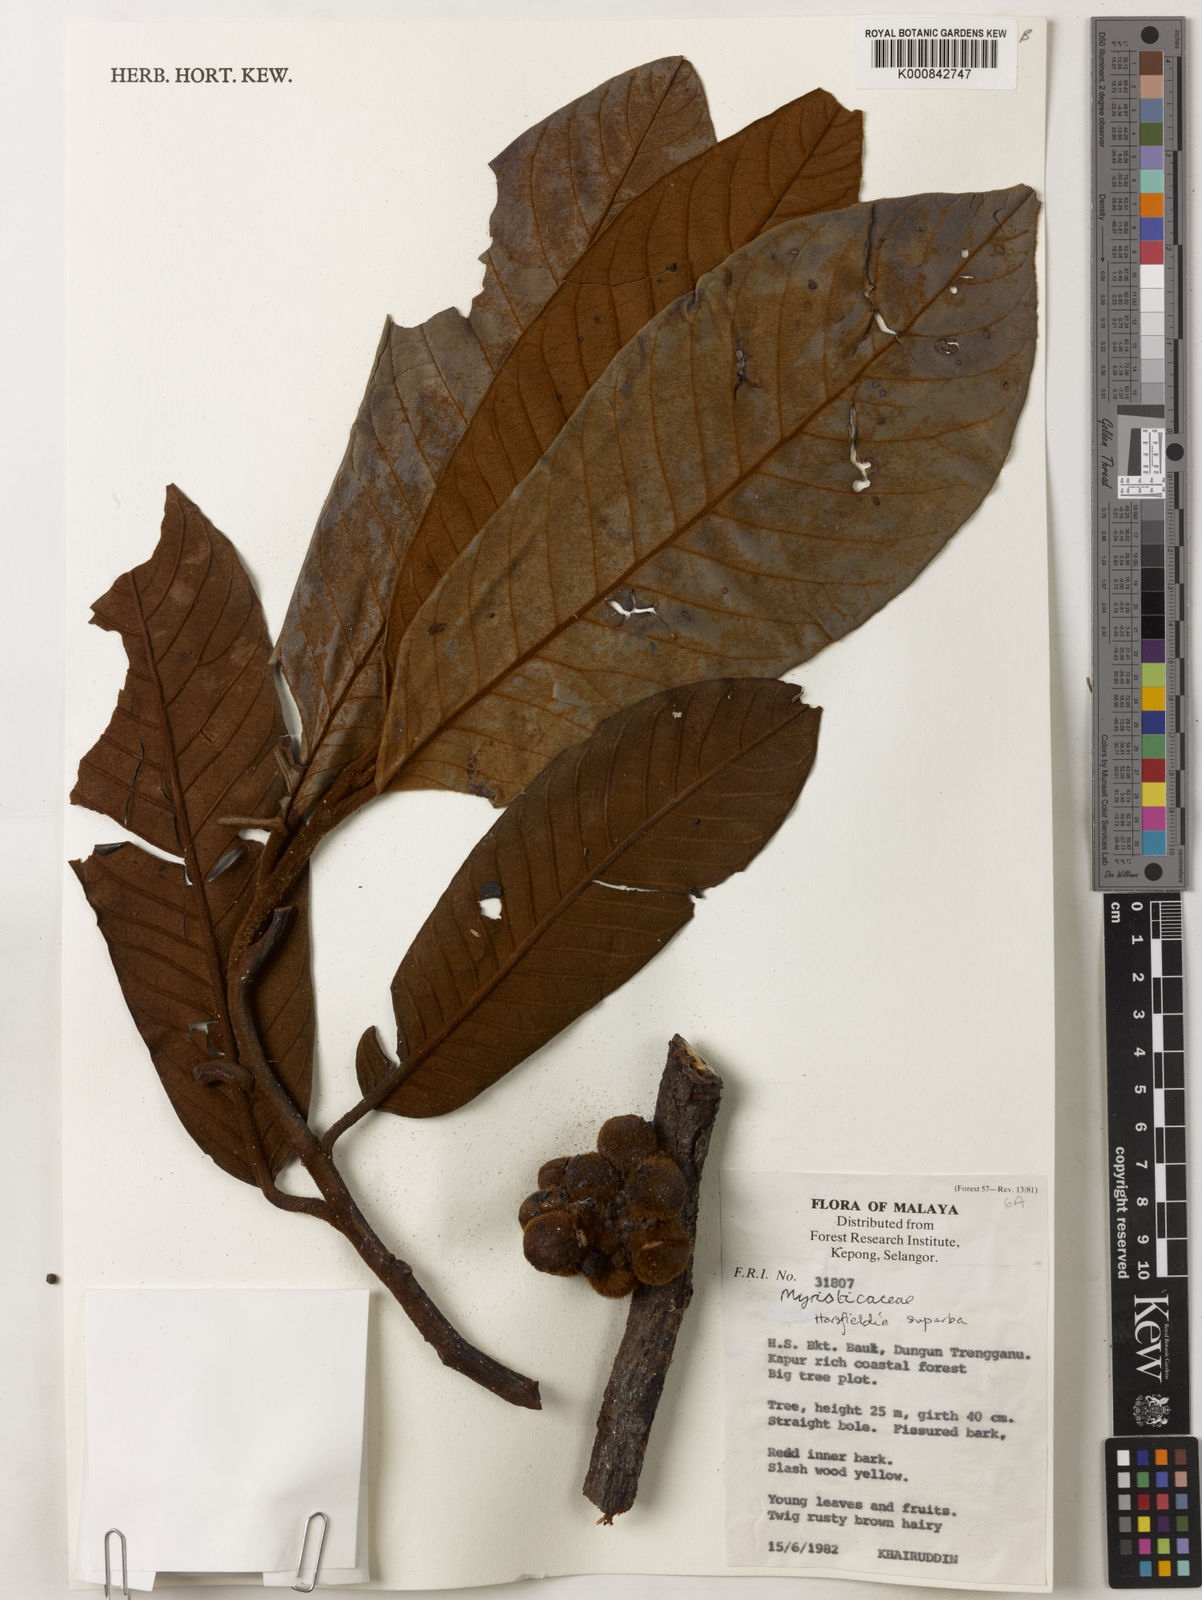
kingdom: Plantae
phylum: Tracheophyta
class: Magnoliopsida
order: Magnoliales
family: Myristicaceae
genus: Horsfieldia
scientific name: Horsfieldia superba
